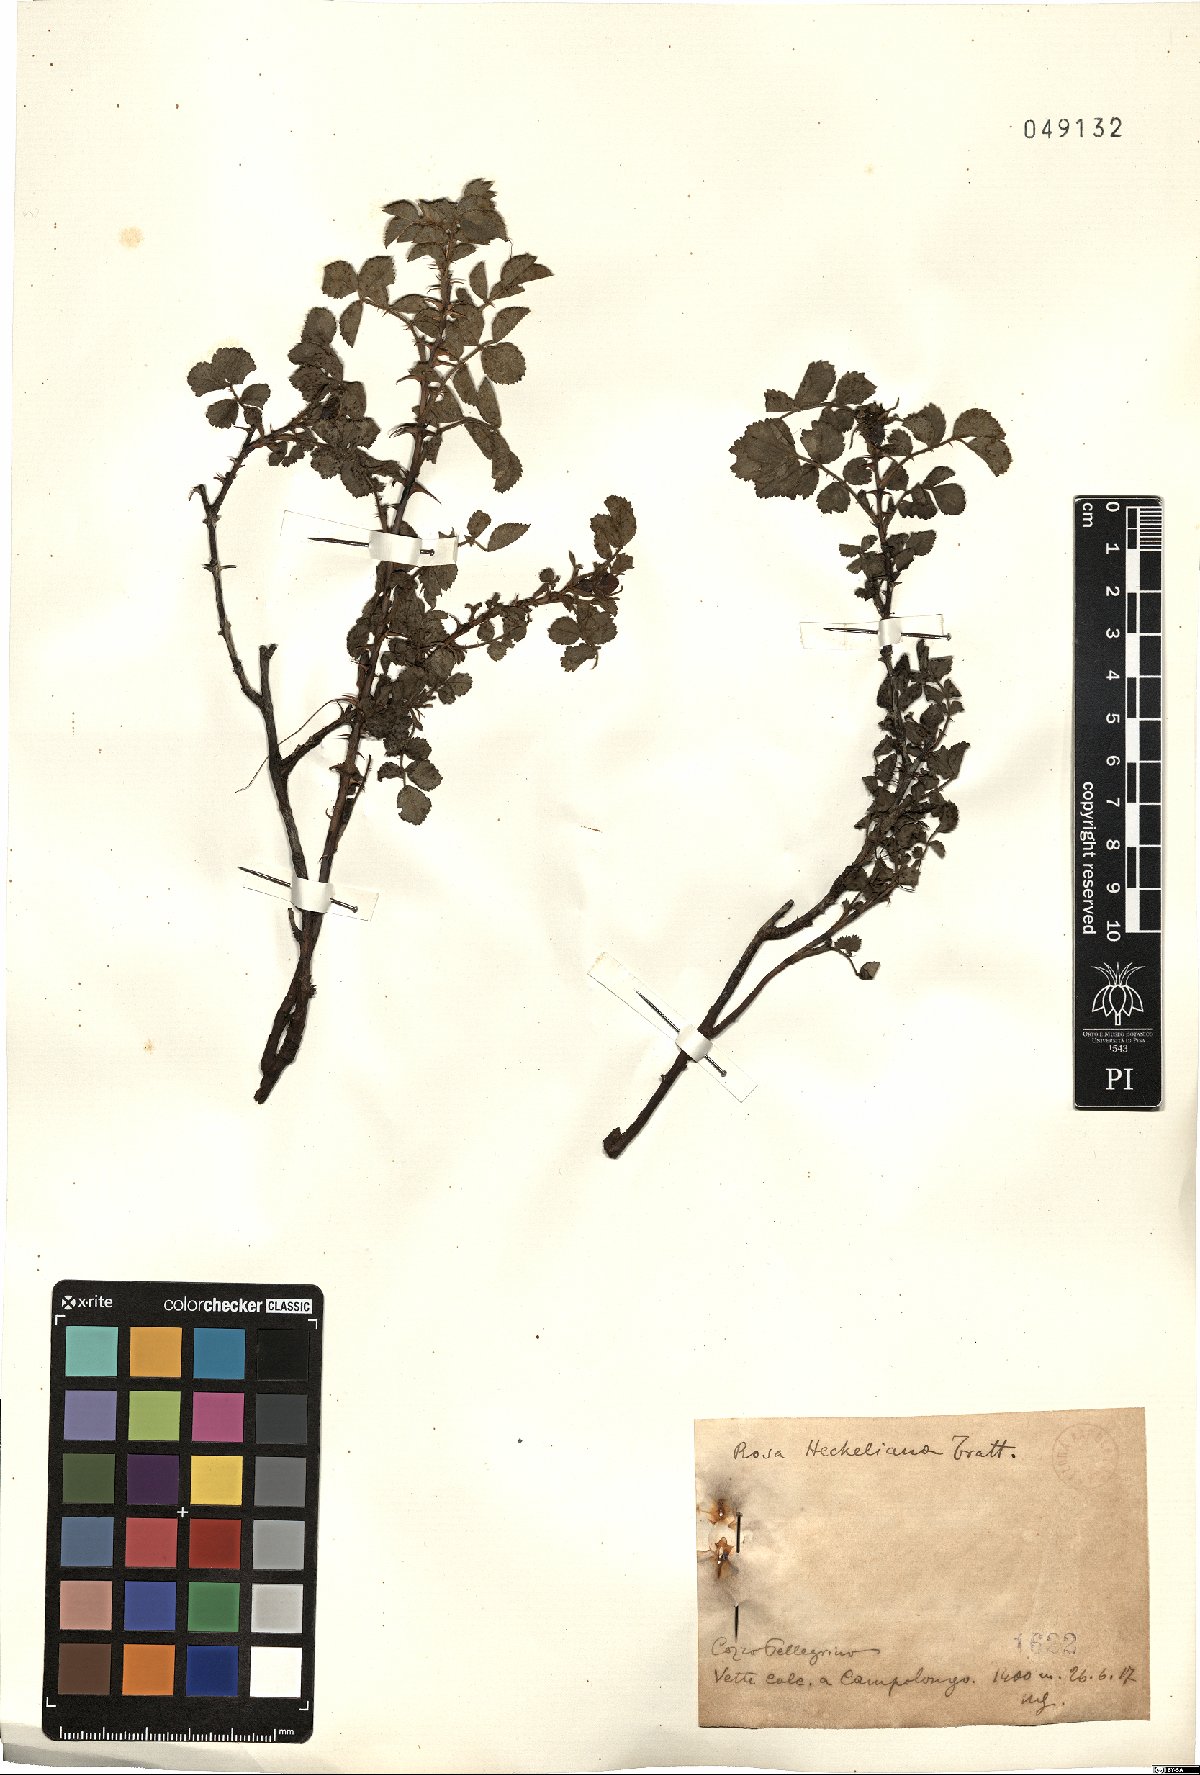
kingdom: Plantae
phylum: Tracheophyta
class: Magnoliopsida
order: Rosales
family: Rosaceae
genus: Rosa
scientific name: Rosa heckeliana
